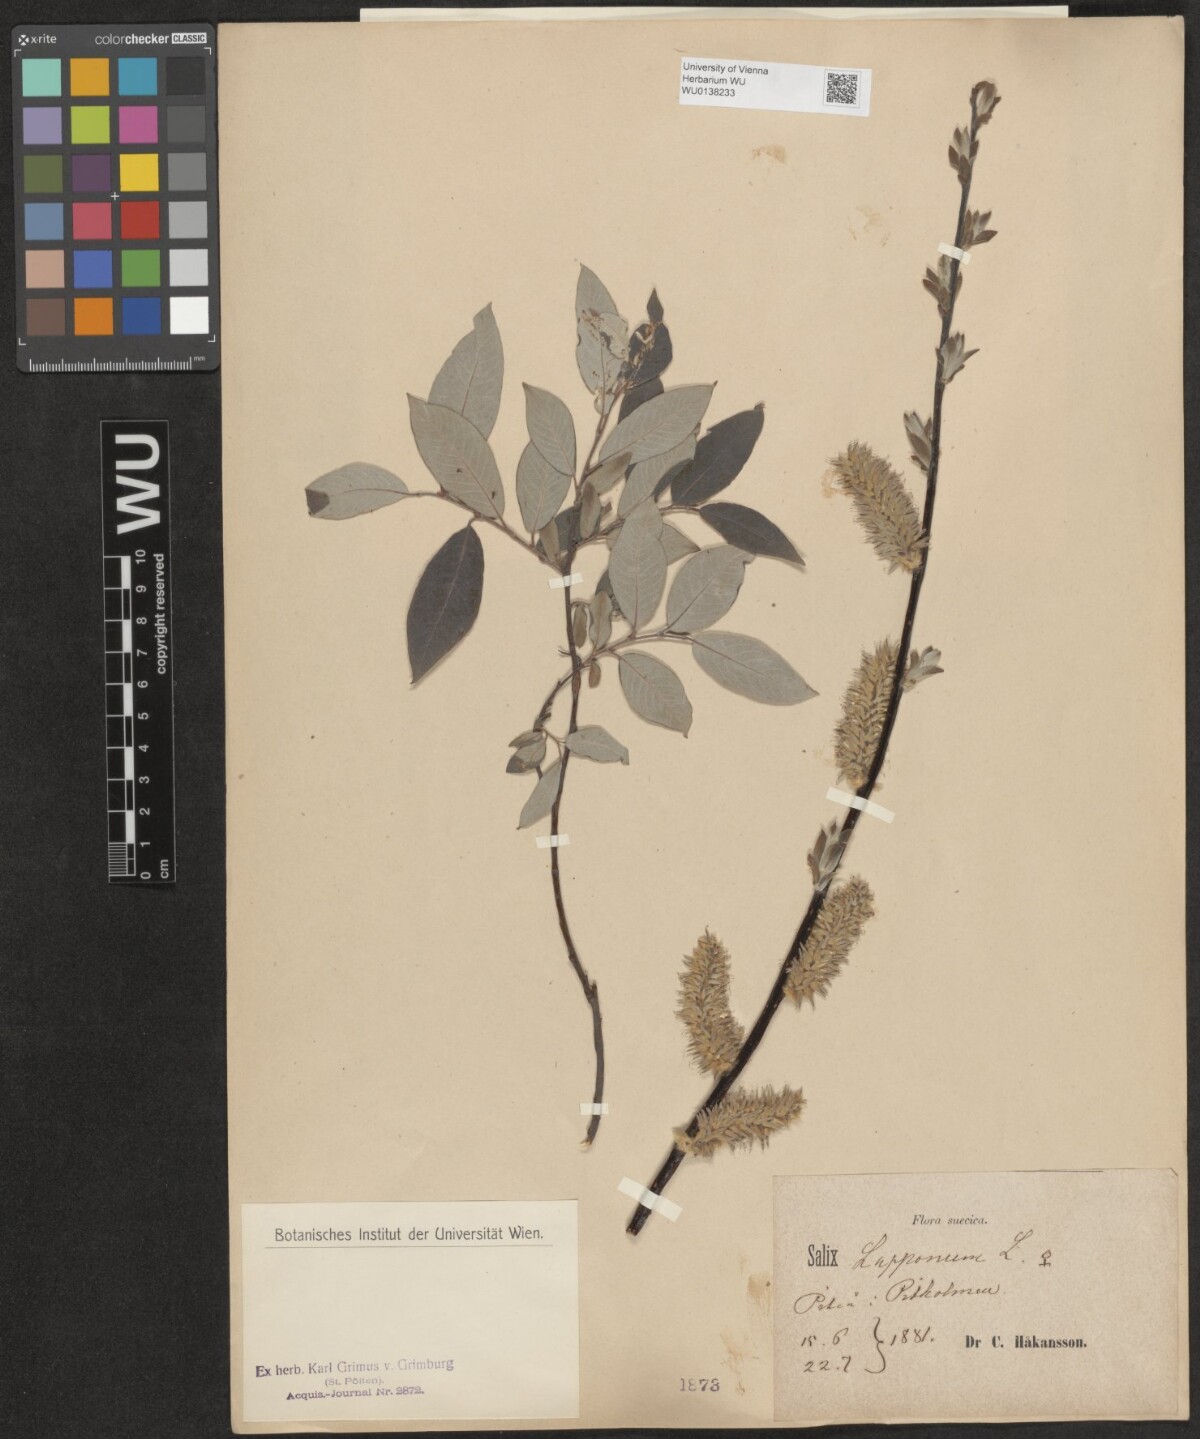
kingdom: Plantae
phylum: Tracheophyta
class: Magnoliopsida
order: Malpighiales
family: Salicaceae
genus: Salix
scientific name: Salix lapponum
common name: Downy willow
